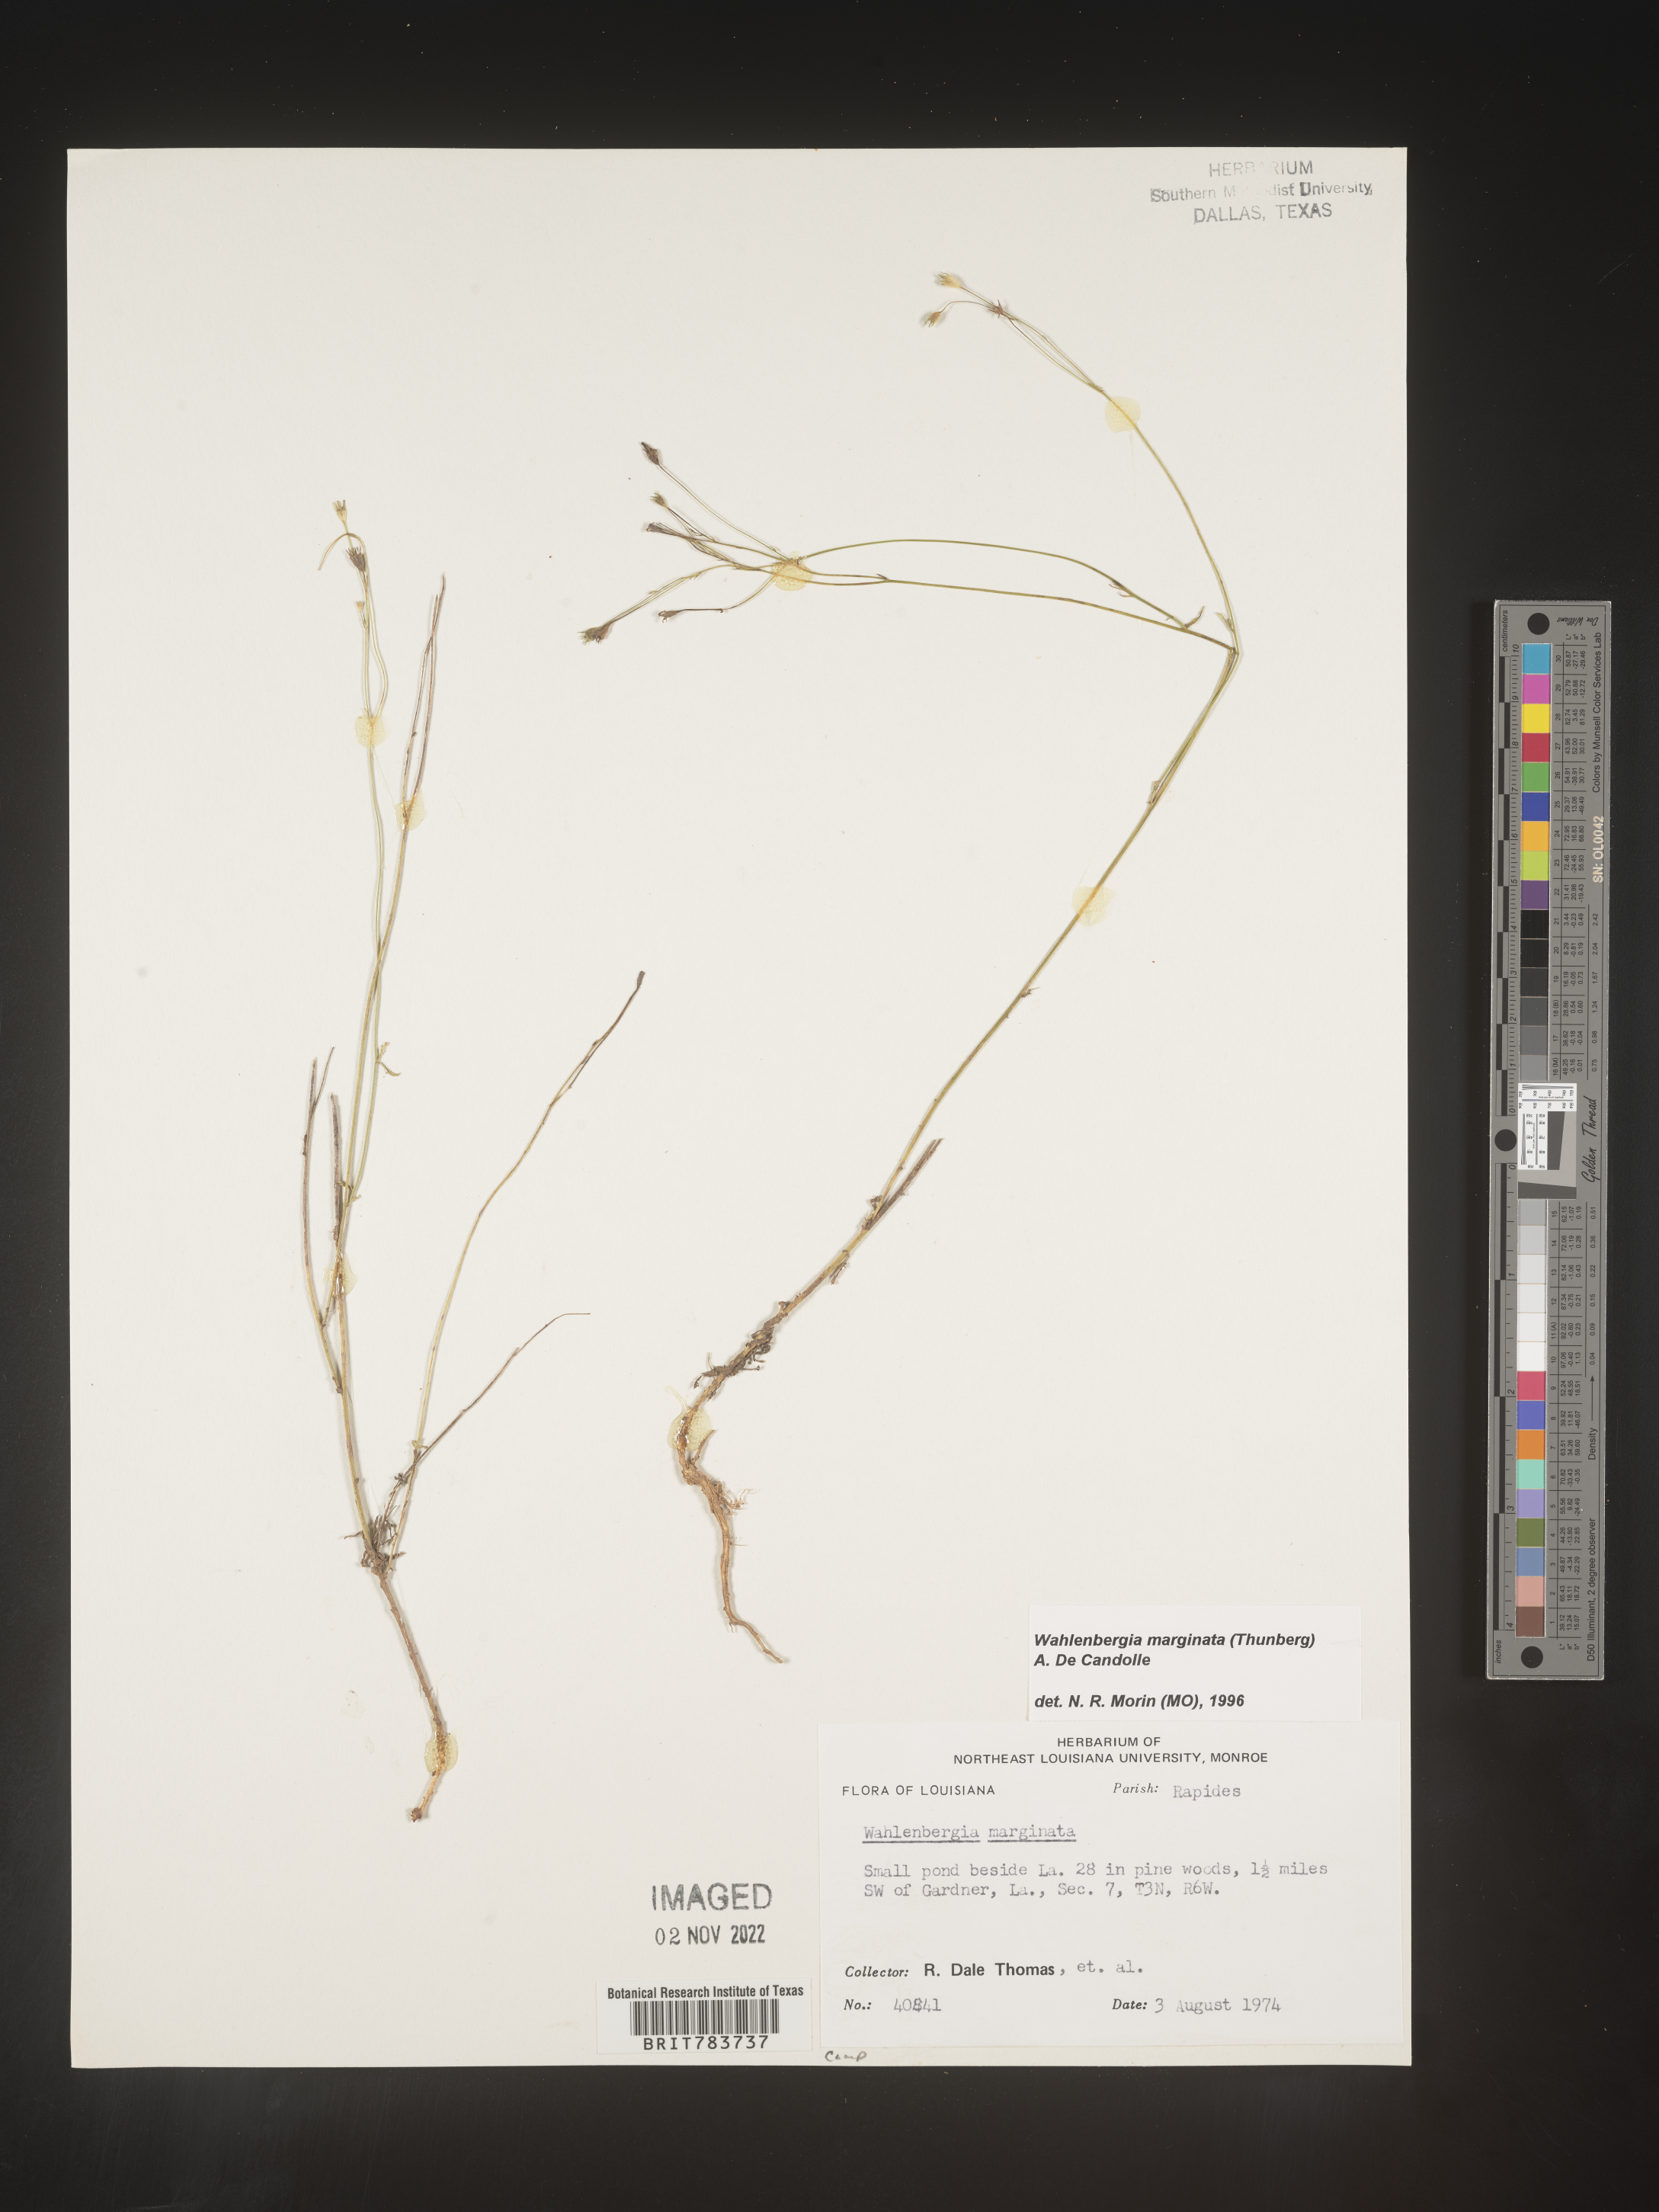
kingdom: Plantae
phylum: Tracheophyta
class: Magnoliopsida
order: Asterales
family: Campanulaceae
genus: Wahlenbergia
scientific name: Wahlenbergia marginata
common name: Southern rockbell
